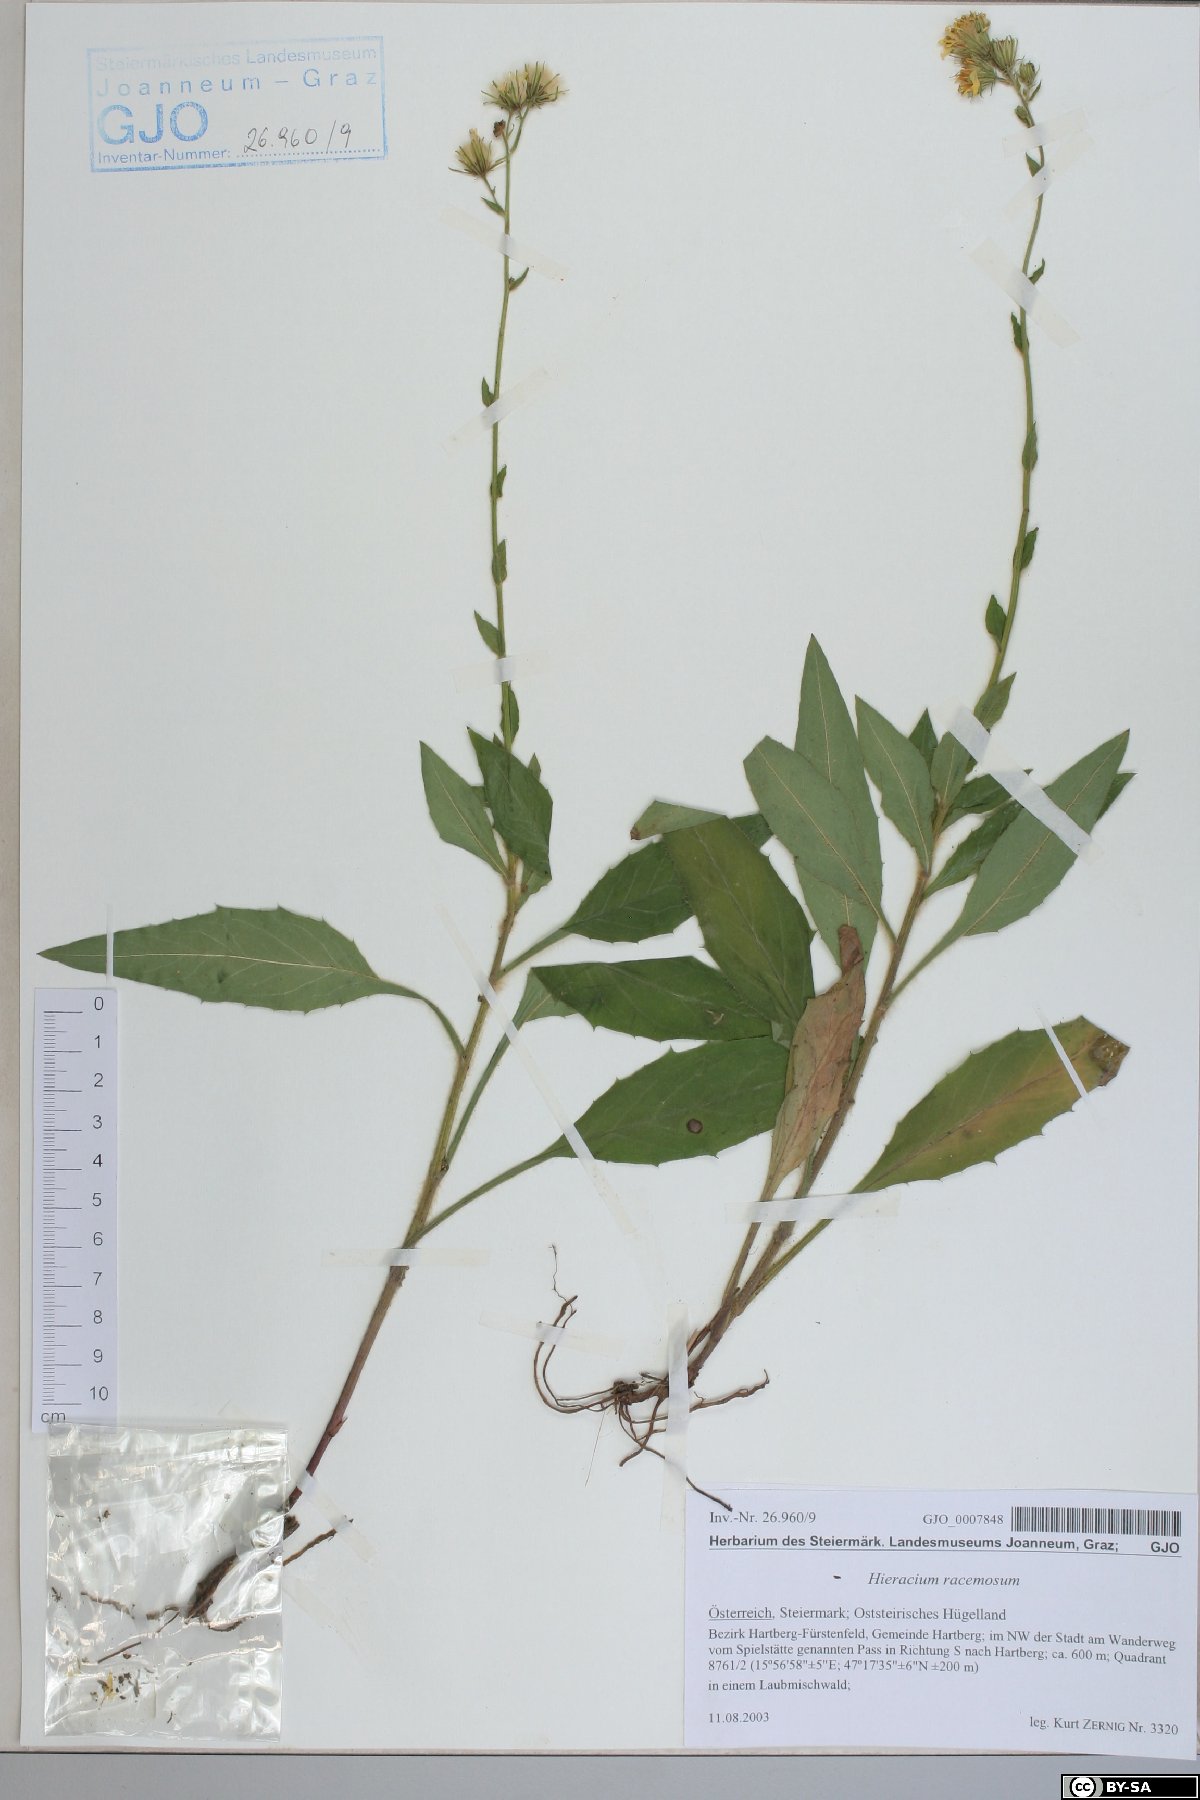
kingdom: Plantae
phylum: Tracheophyta
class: Magnoliopsida
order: Asterales
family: Asteraceae
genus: Hieracium
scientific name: Hieracium racemosum
